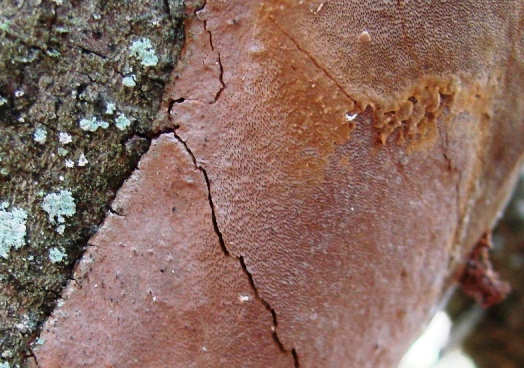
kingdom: Fungi
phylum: Basidiomycota
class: Agaricomycetes
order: Hymenochaetales
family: Hymenochaetaceae
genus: Fomitiporia
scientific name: Fomitiporia punctata
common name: pude-ildporesvamp
